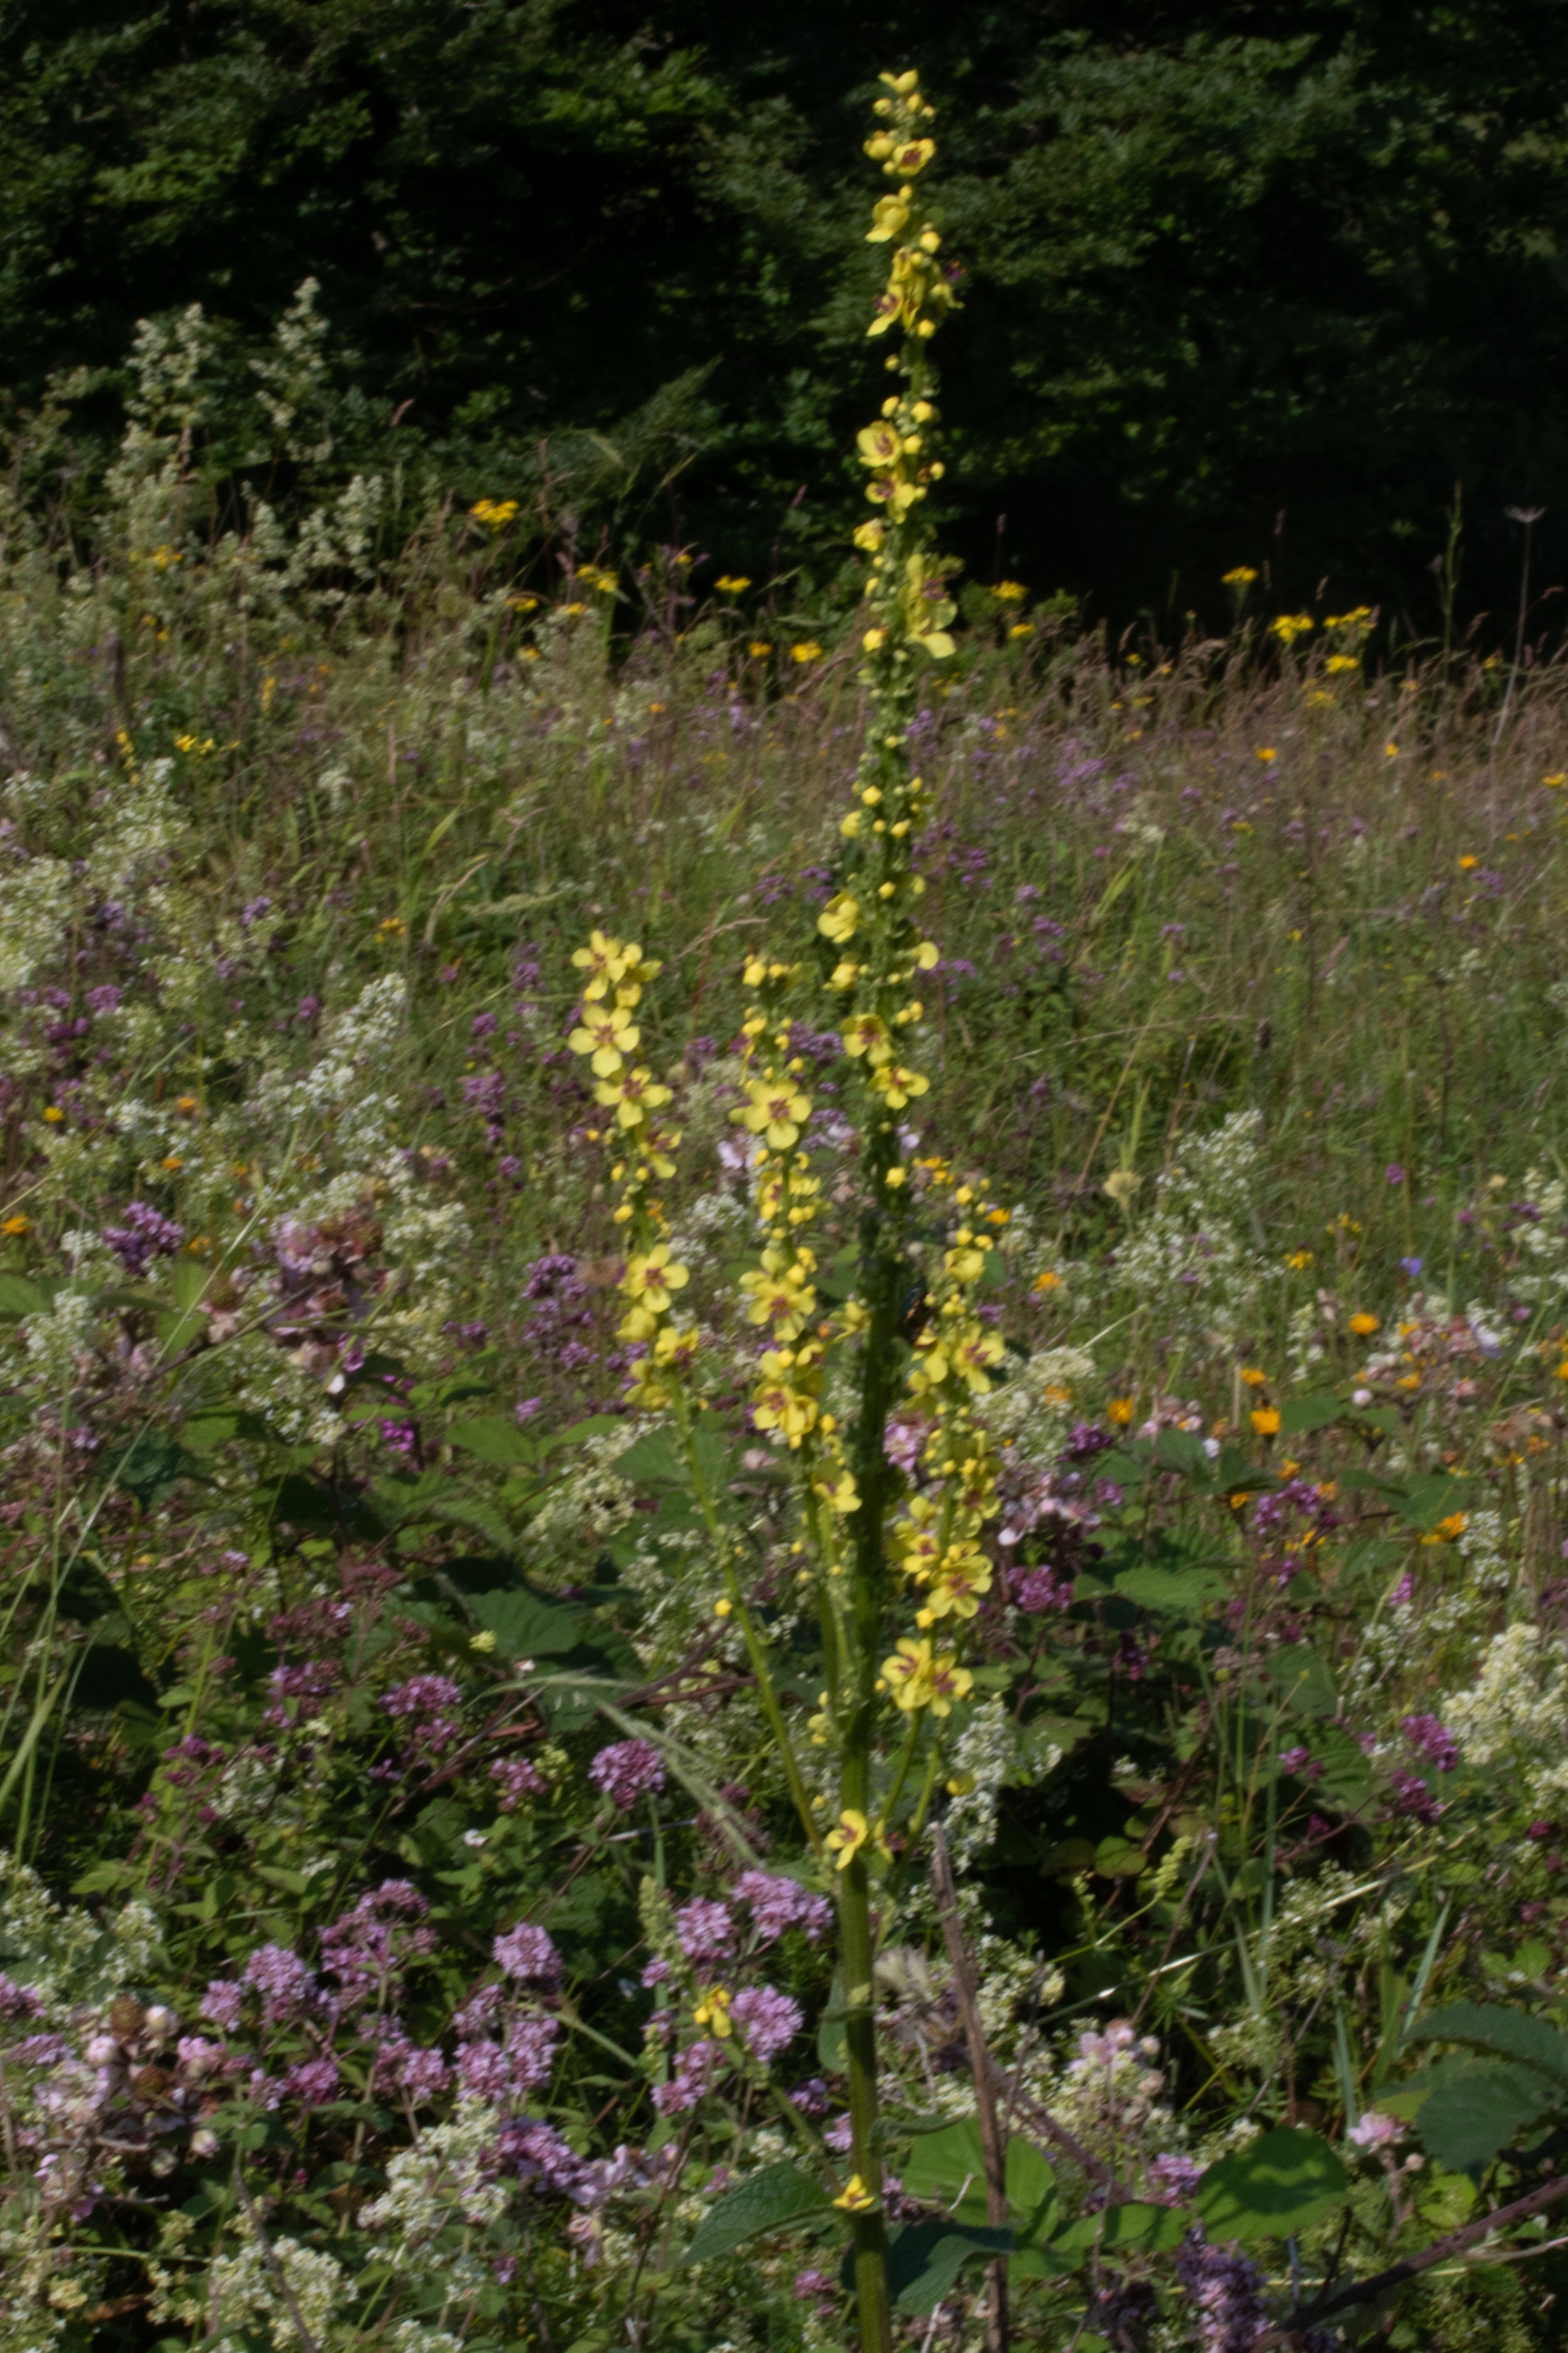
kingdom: Plantae
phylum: Tracheophyta
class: Magnoliopsida
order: Lamiales
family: Scrophulariaceae
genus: Verbascum
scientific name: Verbascum nigrum
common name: Mørk kongelys
